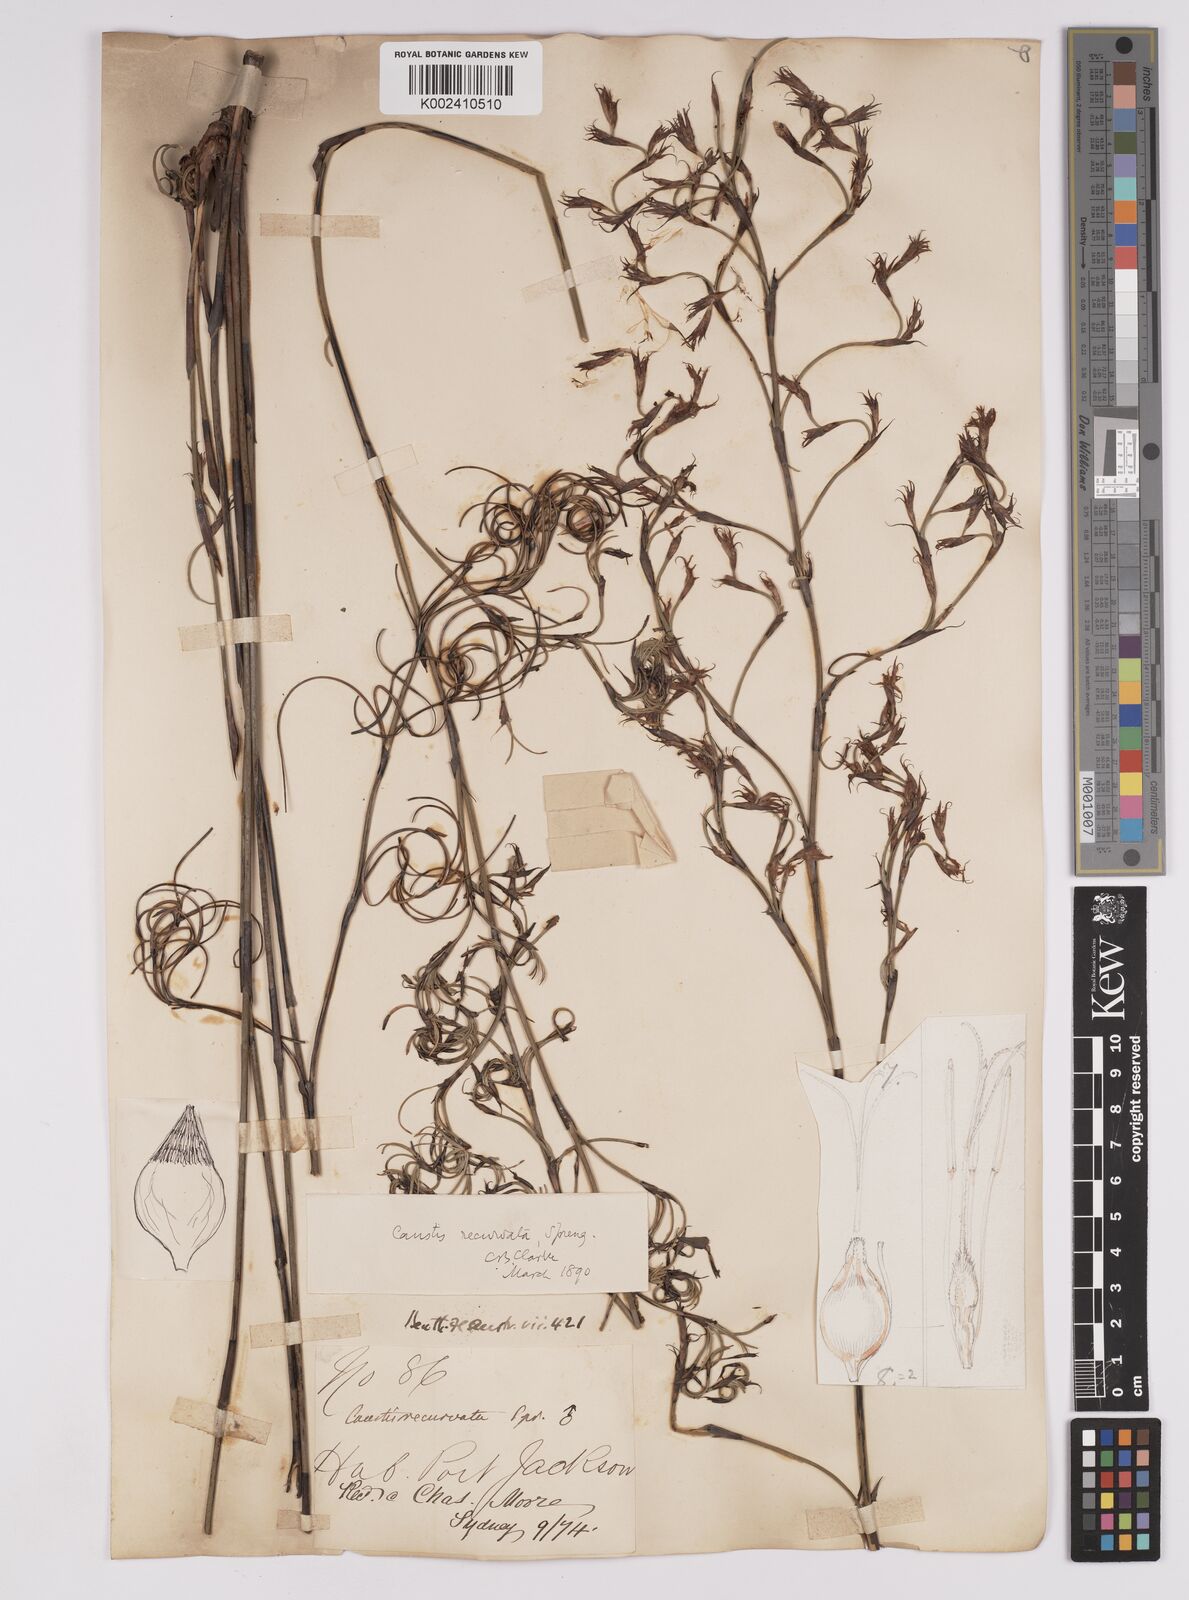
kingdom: Plantae
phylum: Tracheophyta
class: Liliopsida
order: Poales
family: Cyperaceae
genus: Caustis
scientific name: Caustis recurvata
